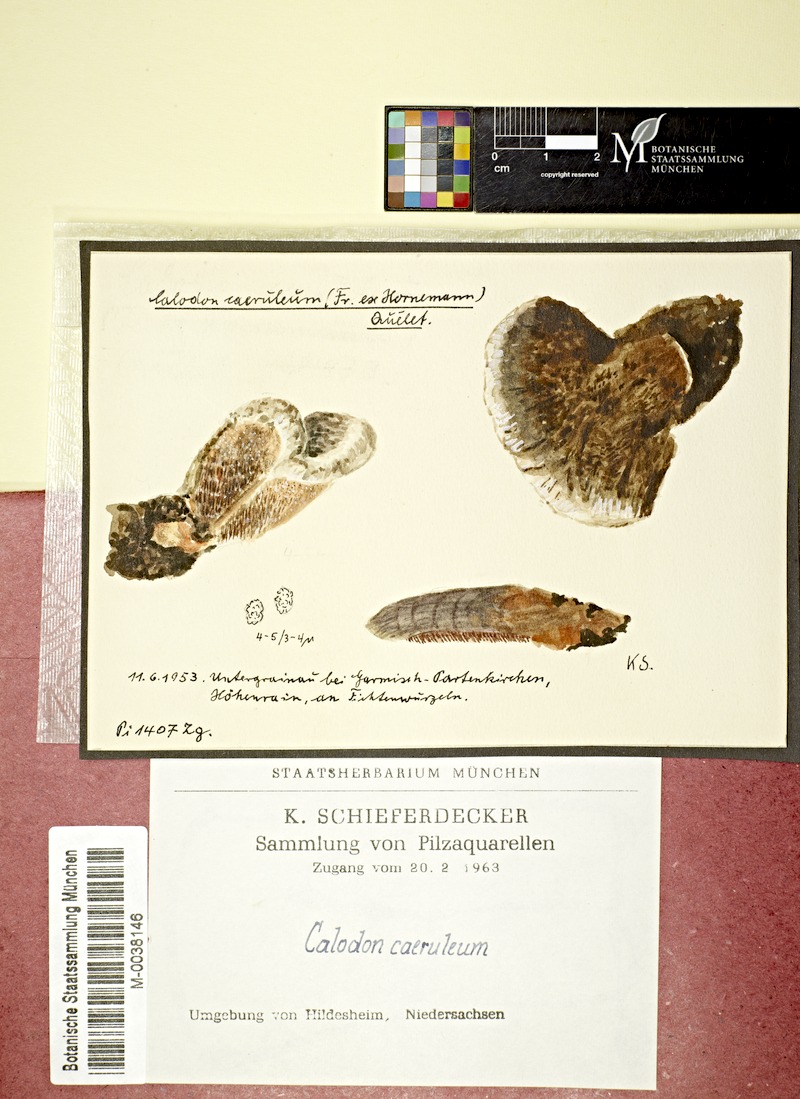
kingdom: Fungi
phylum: Basidiomycota
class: Agaricomycetes
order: Thelephorales
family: Bankeraceae
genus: Hydnellum
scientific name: Hydnellum caeruleum
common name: Blue corky spine fungus
